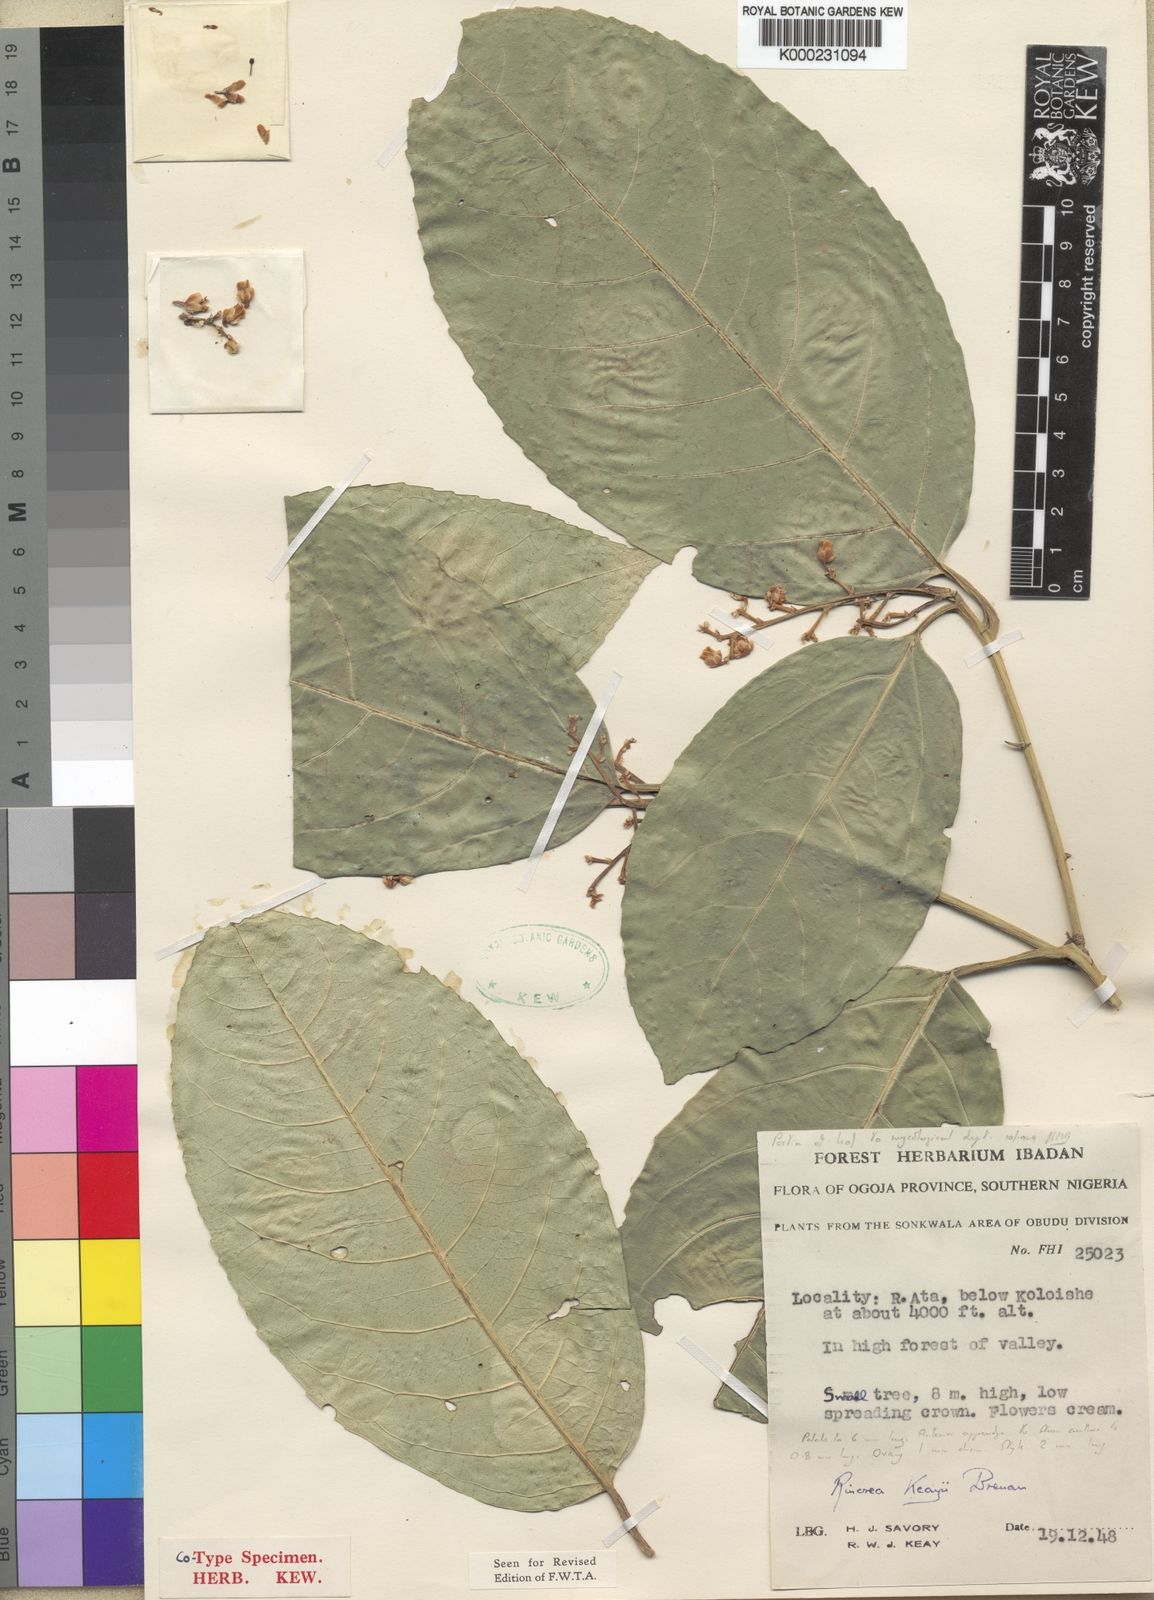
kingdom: Plantae
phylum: Tracheophyta
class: Magnoliopsida
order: Malpighiales
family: Violaceae
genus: Rinorea
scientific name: Rinorea keayi
